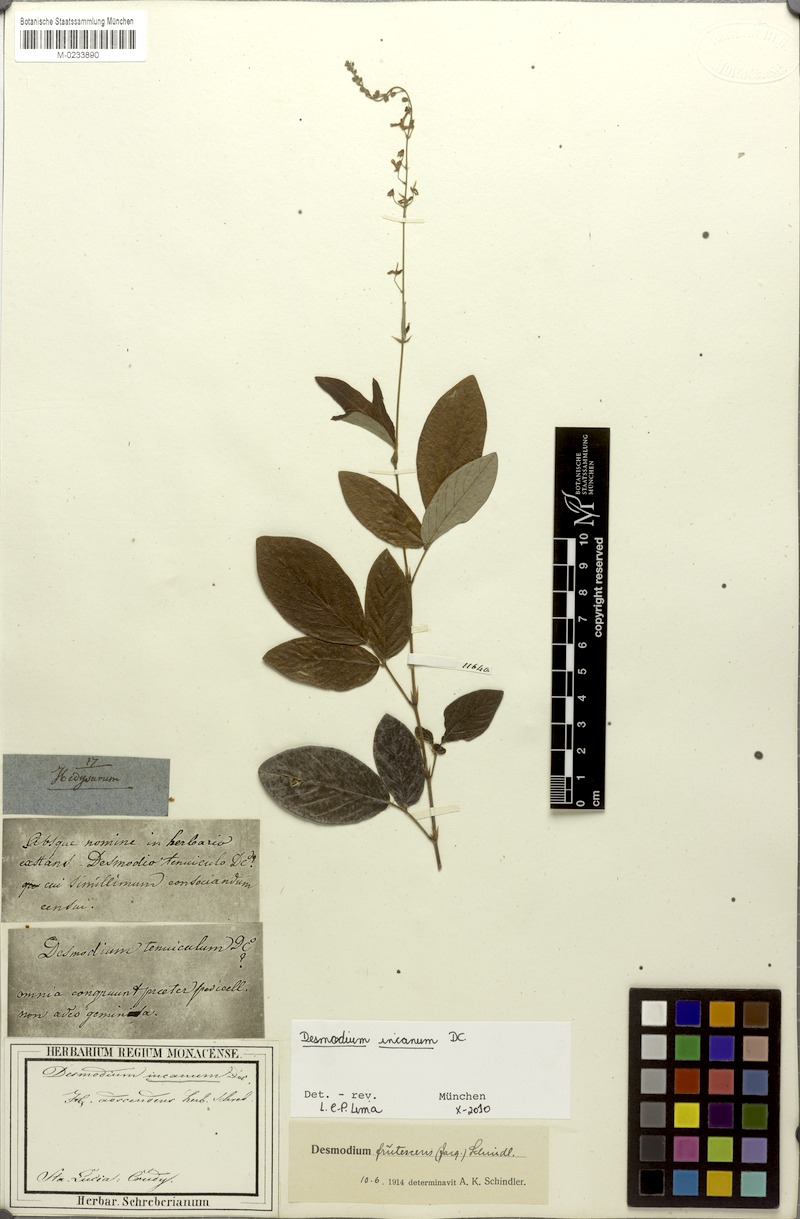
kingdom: Plantae
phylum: Tracheophyta
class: Magnoliopsida
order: Fabales
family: Fabaceae
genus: Desmodium
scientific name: Desmodium incanum
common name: Tickclover
